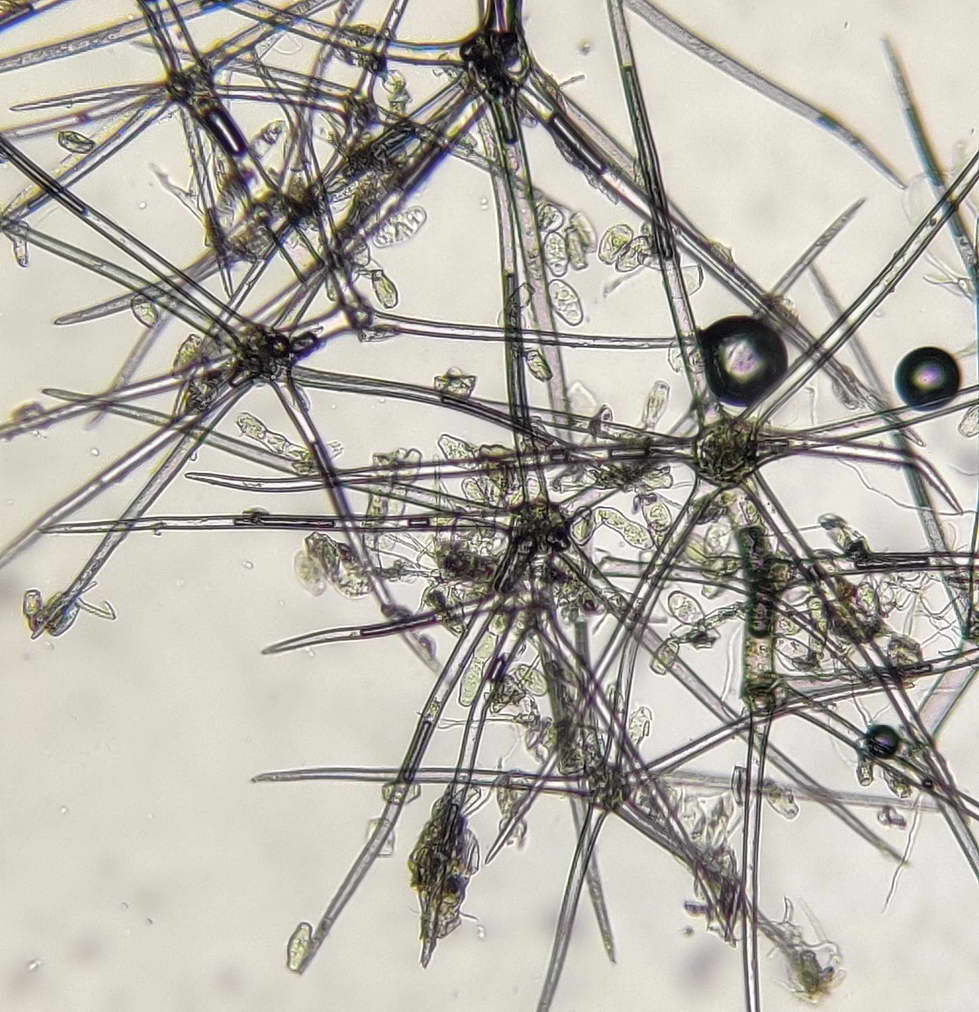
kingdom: Fungi
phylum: Ascomycota
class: Leotiomycetes
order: Helotiales
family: Erysiphaceae
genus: Golovinomyces
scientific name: Golovinomyces verbasci
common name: kongelys-meldug
